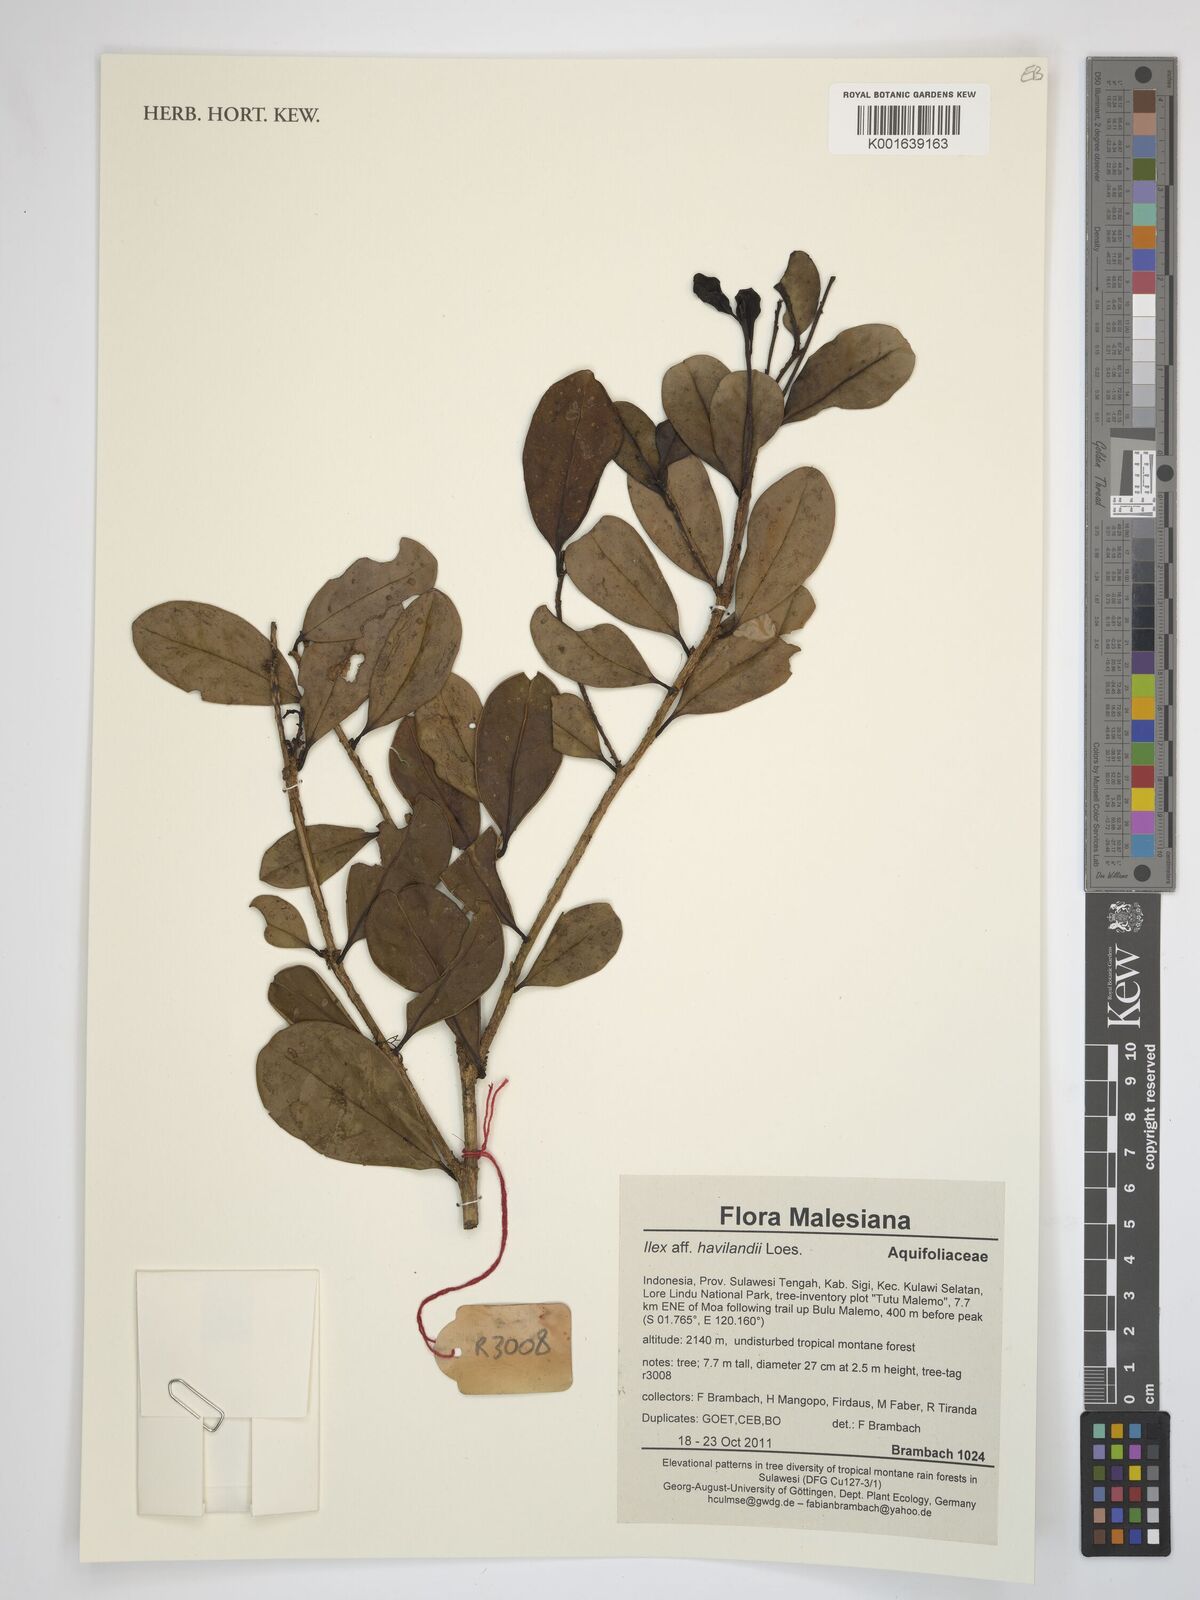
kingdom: Plantae
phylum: Tracheophyta
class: Magnoliopsida
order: Aquifoliales
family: Aquifoliaceae
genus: Ilex
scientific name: Ilex havilandii
